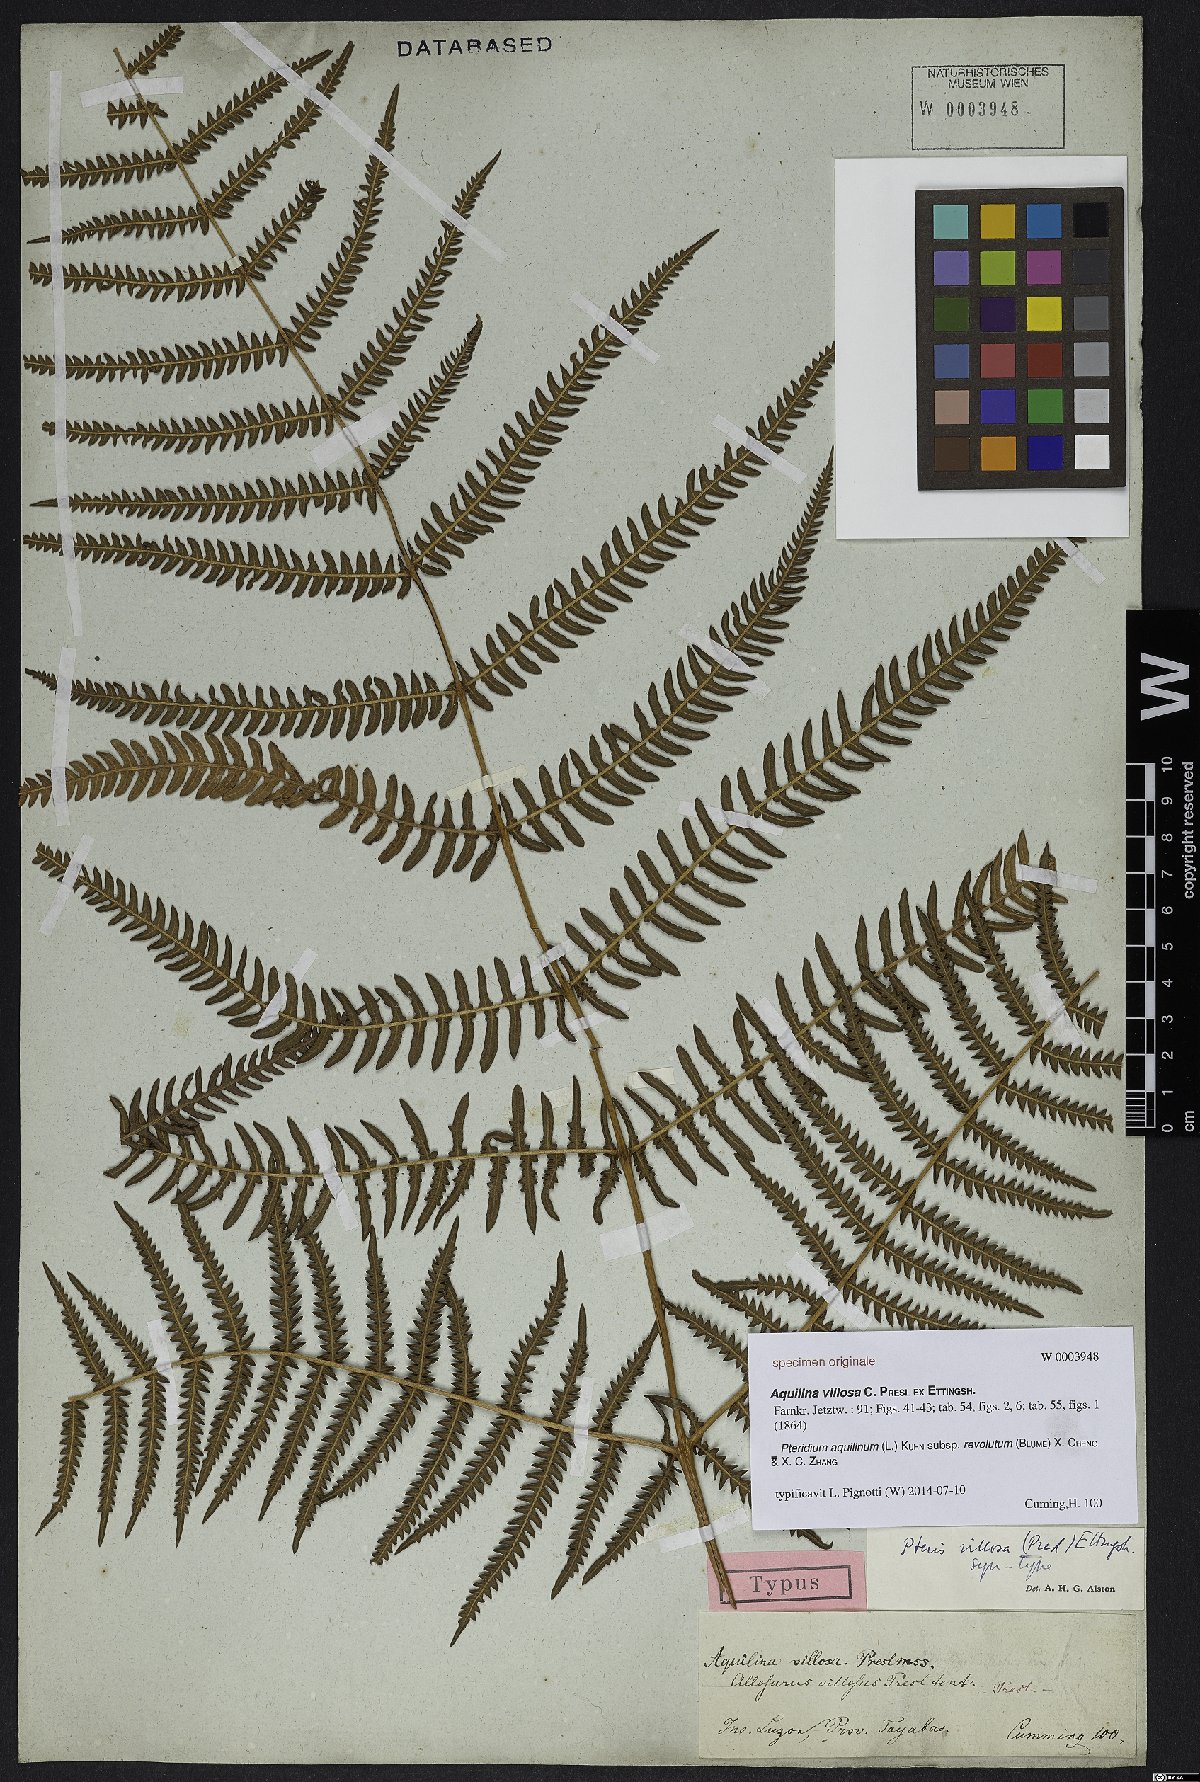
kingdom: Plantae
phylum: Tracheophyta
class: Polypodiopsida
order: Polypodiales
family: Dennstaedtiaceae
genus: Pteridium
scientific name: Pteridium aquilinum
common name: Bracken
